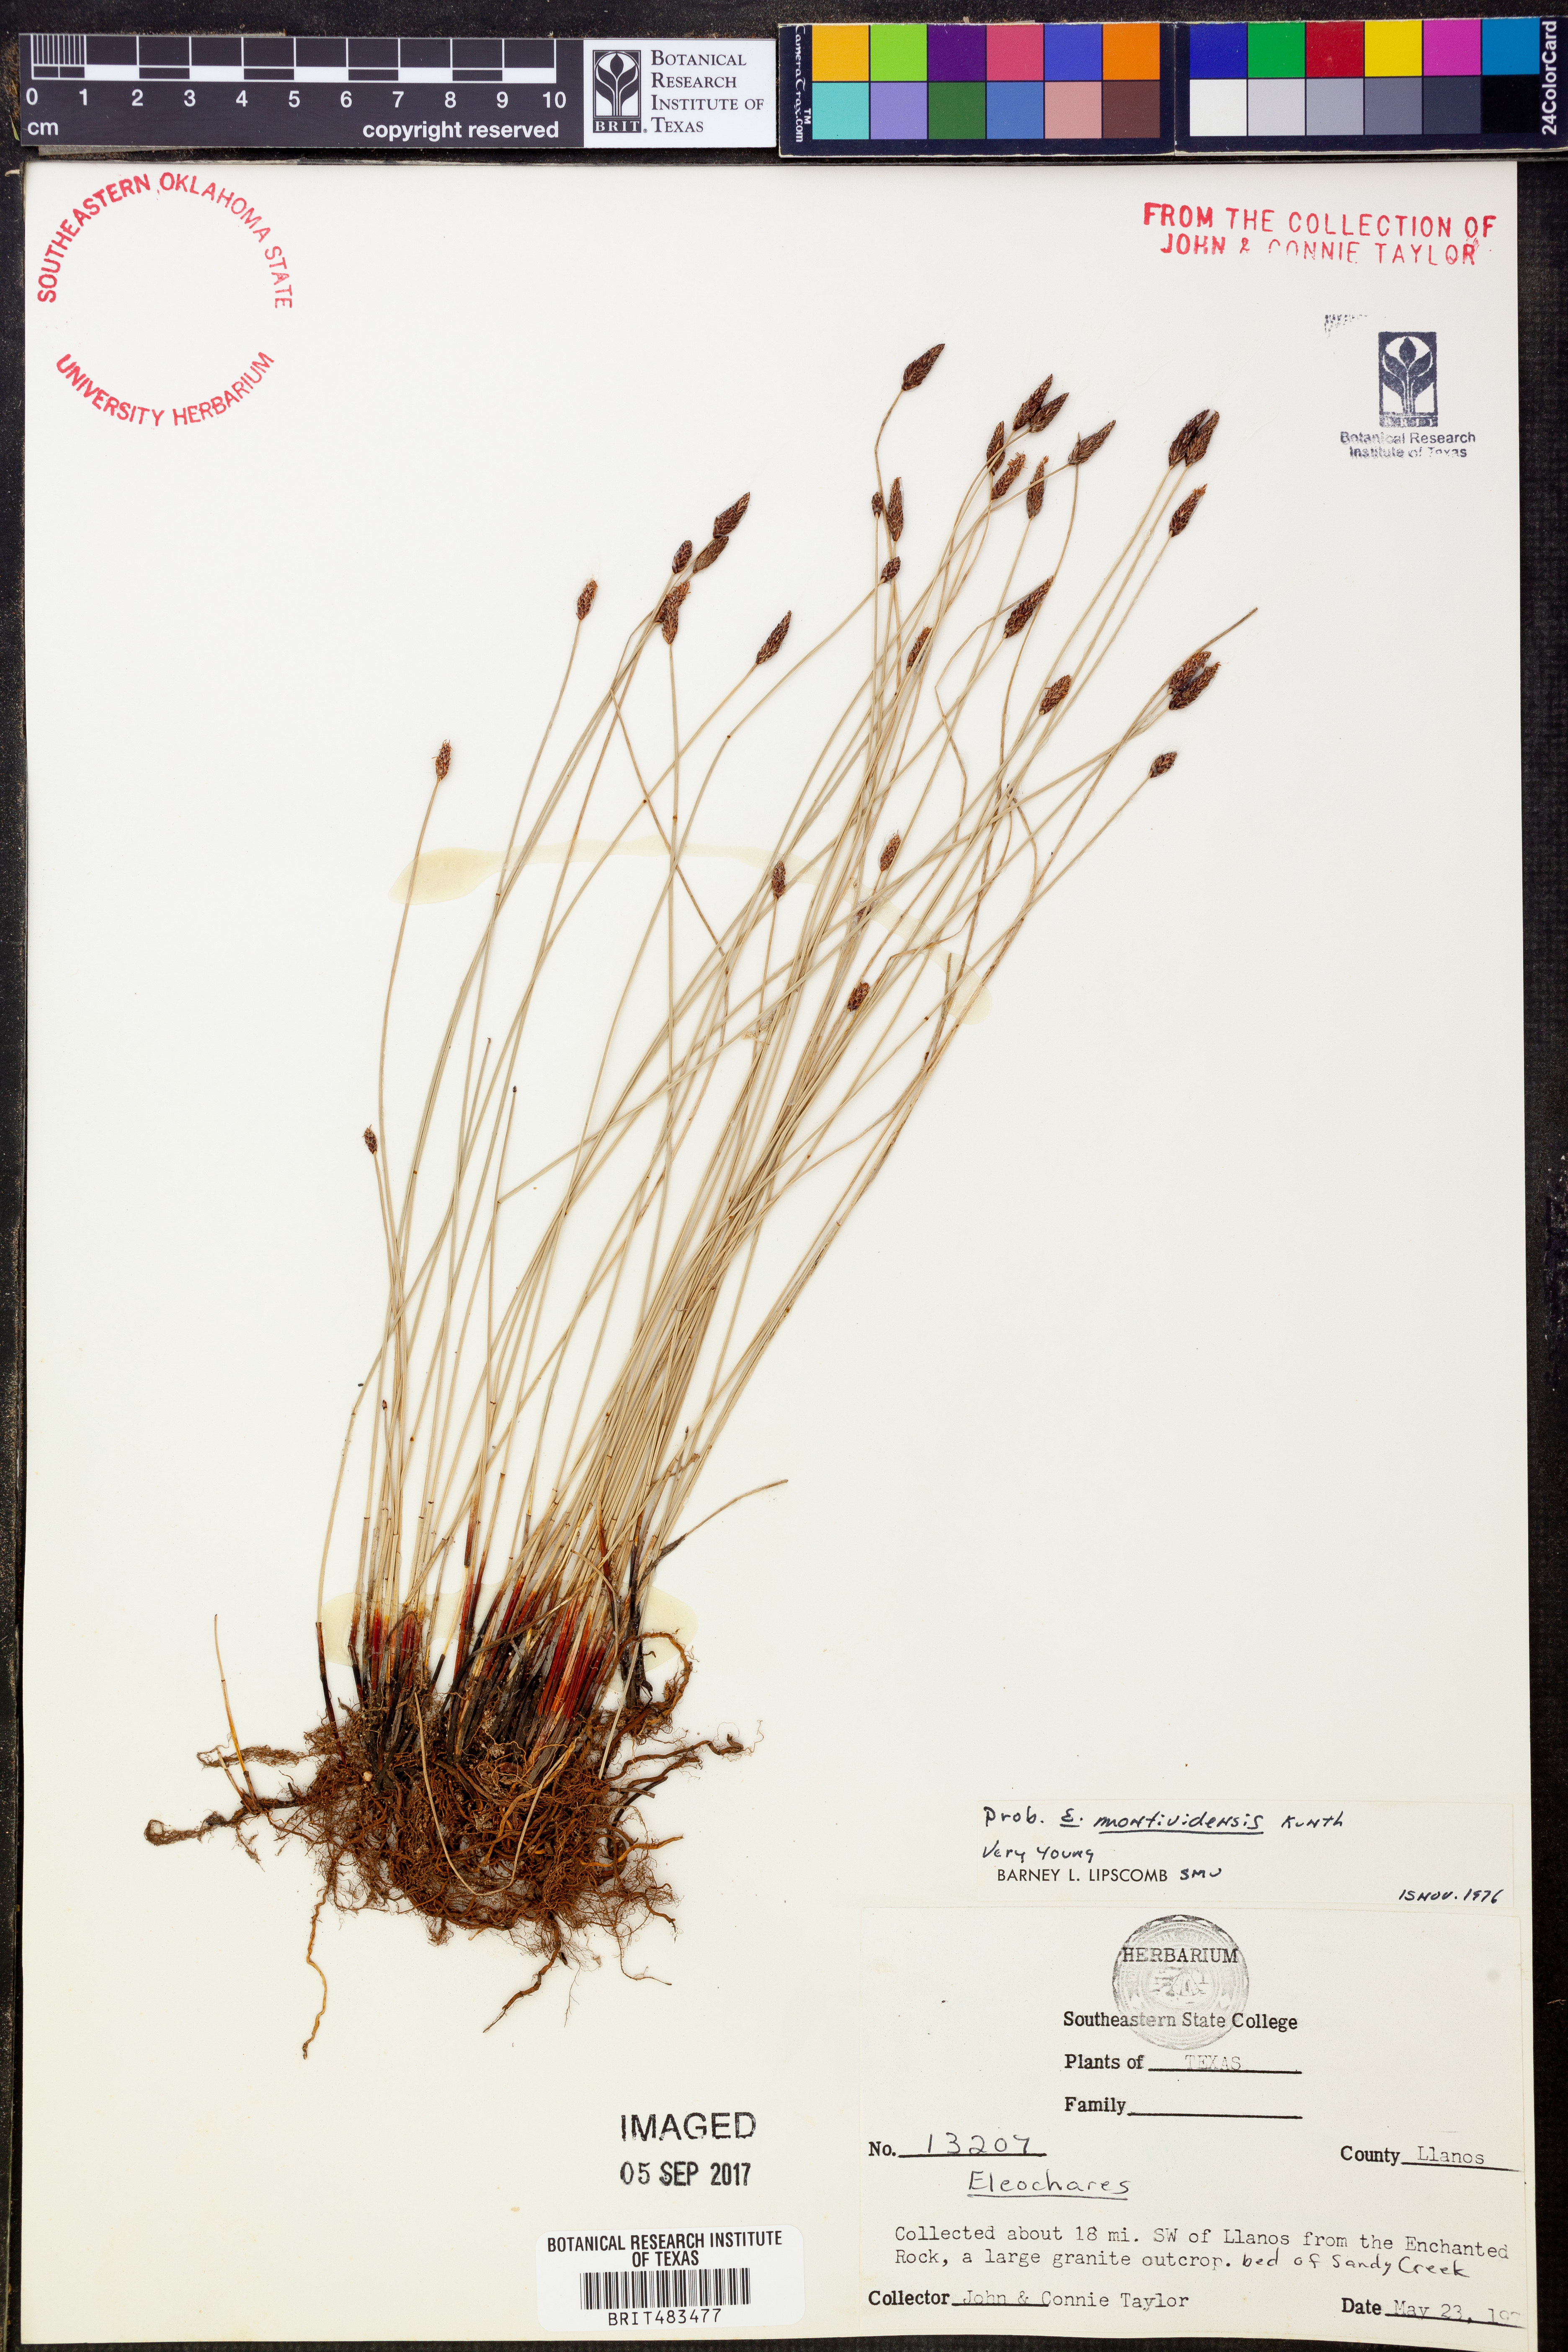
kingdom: Plantae
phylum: Tracheophyta
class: Liliopsida
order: Poales
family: Cyperaceae
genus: Eleocharis
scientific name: Eleocharis montevidensis
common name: Sand spike-rush
